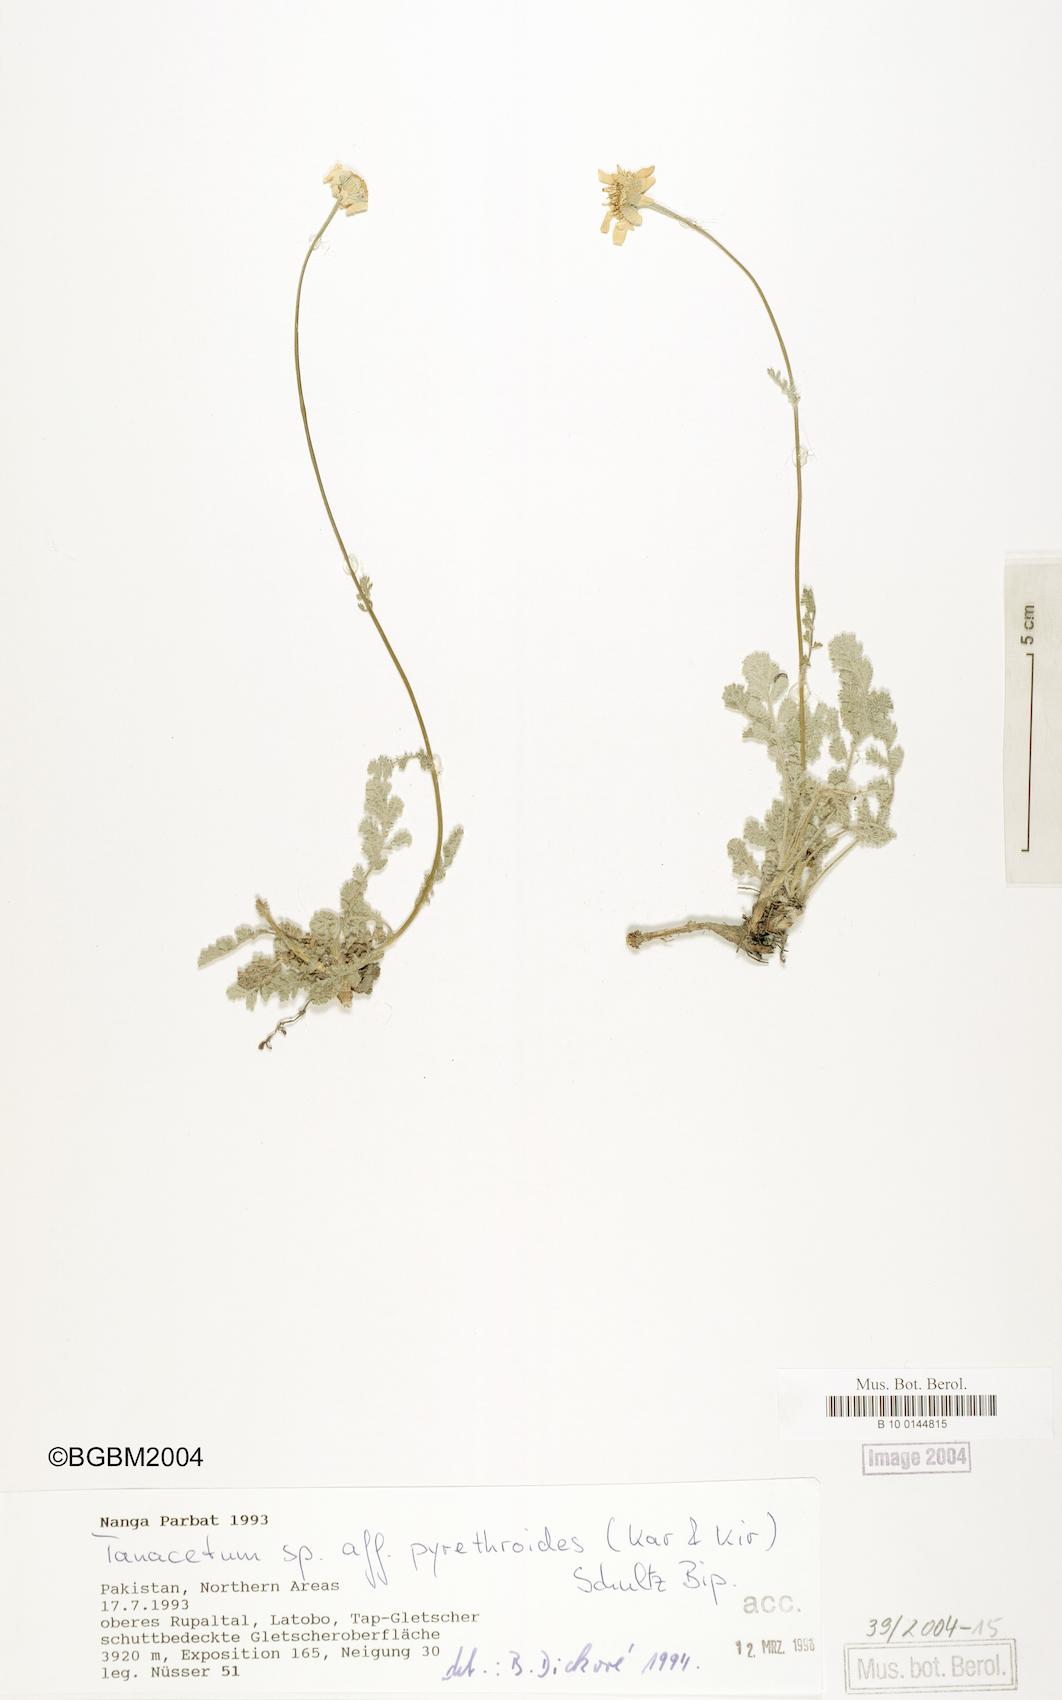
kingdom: Plantae
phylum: Tracheophyta
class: Magnoliopsida
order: Asterales
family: Asteraceae
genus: Richteria
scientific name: Richteria pyrethroides
